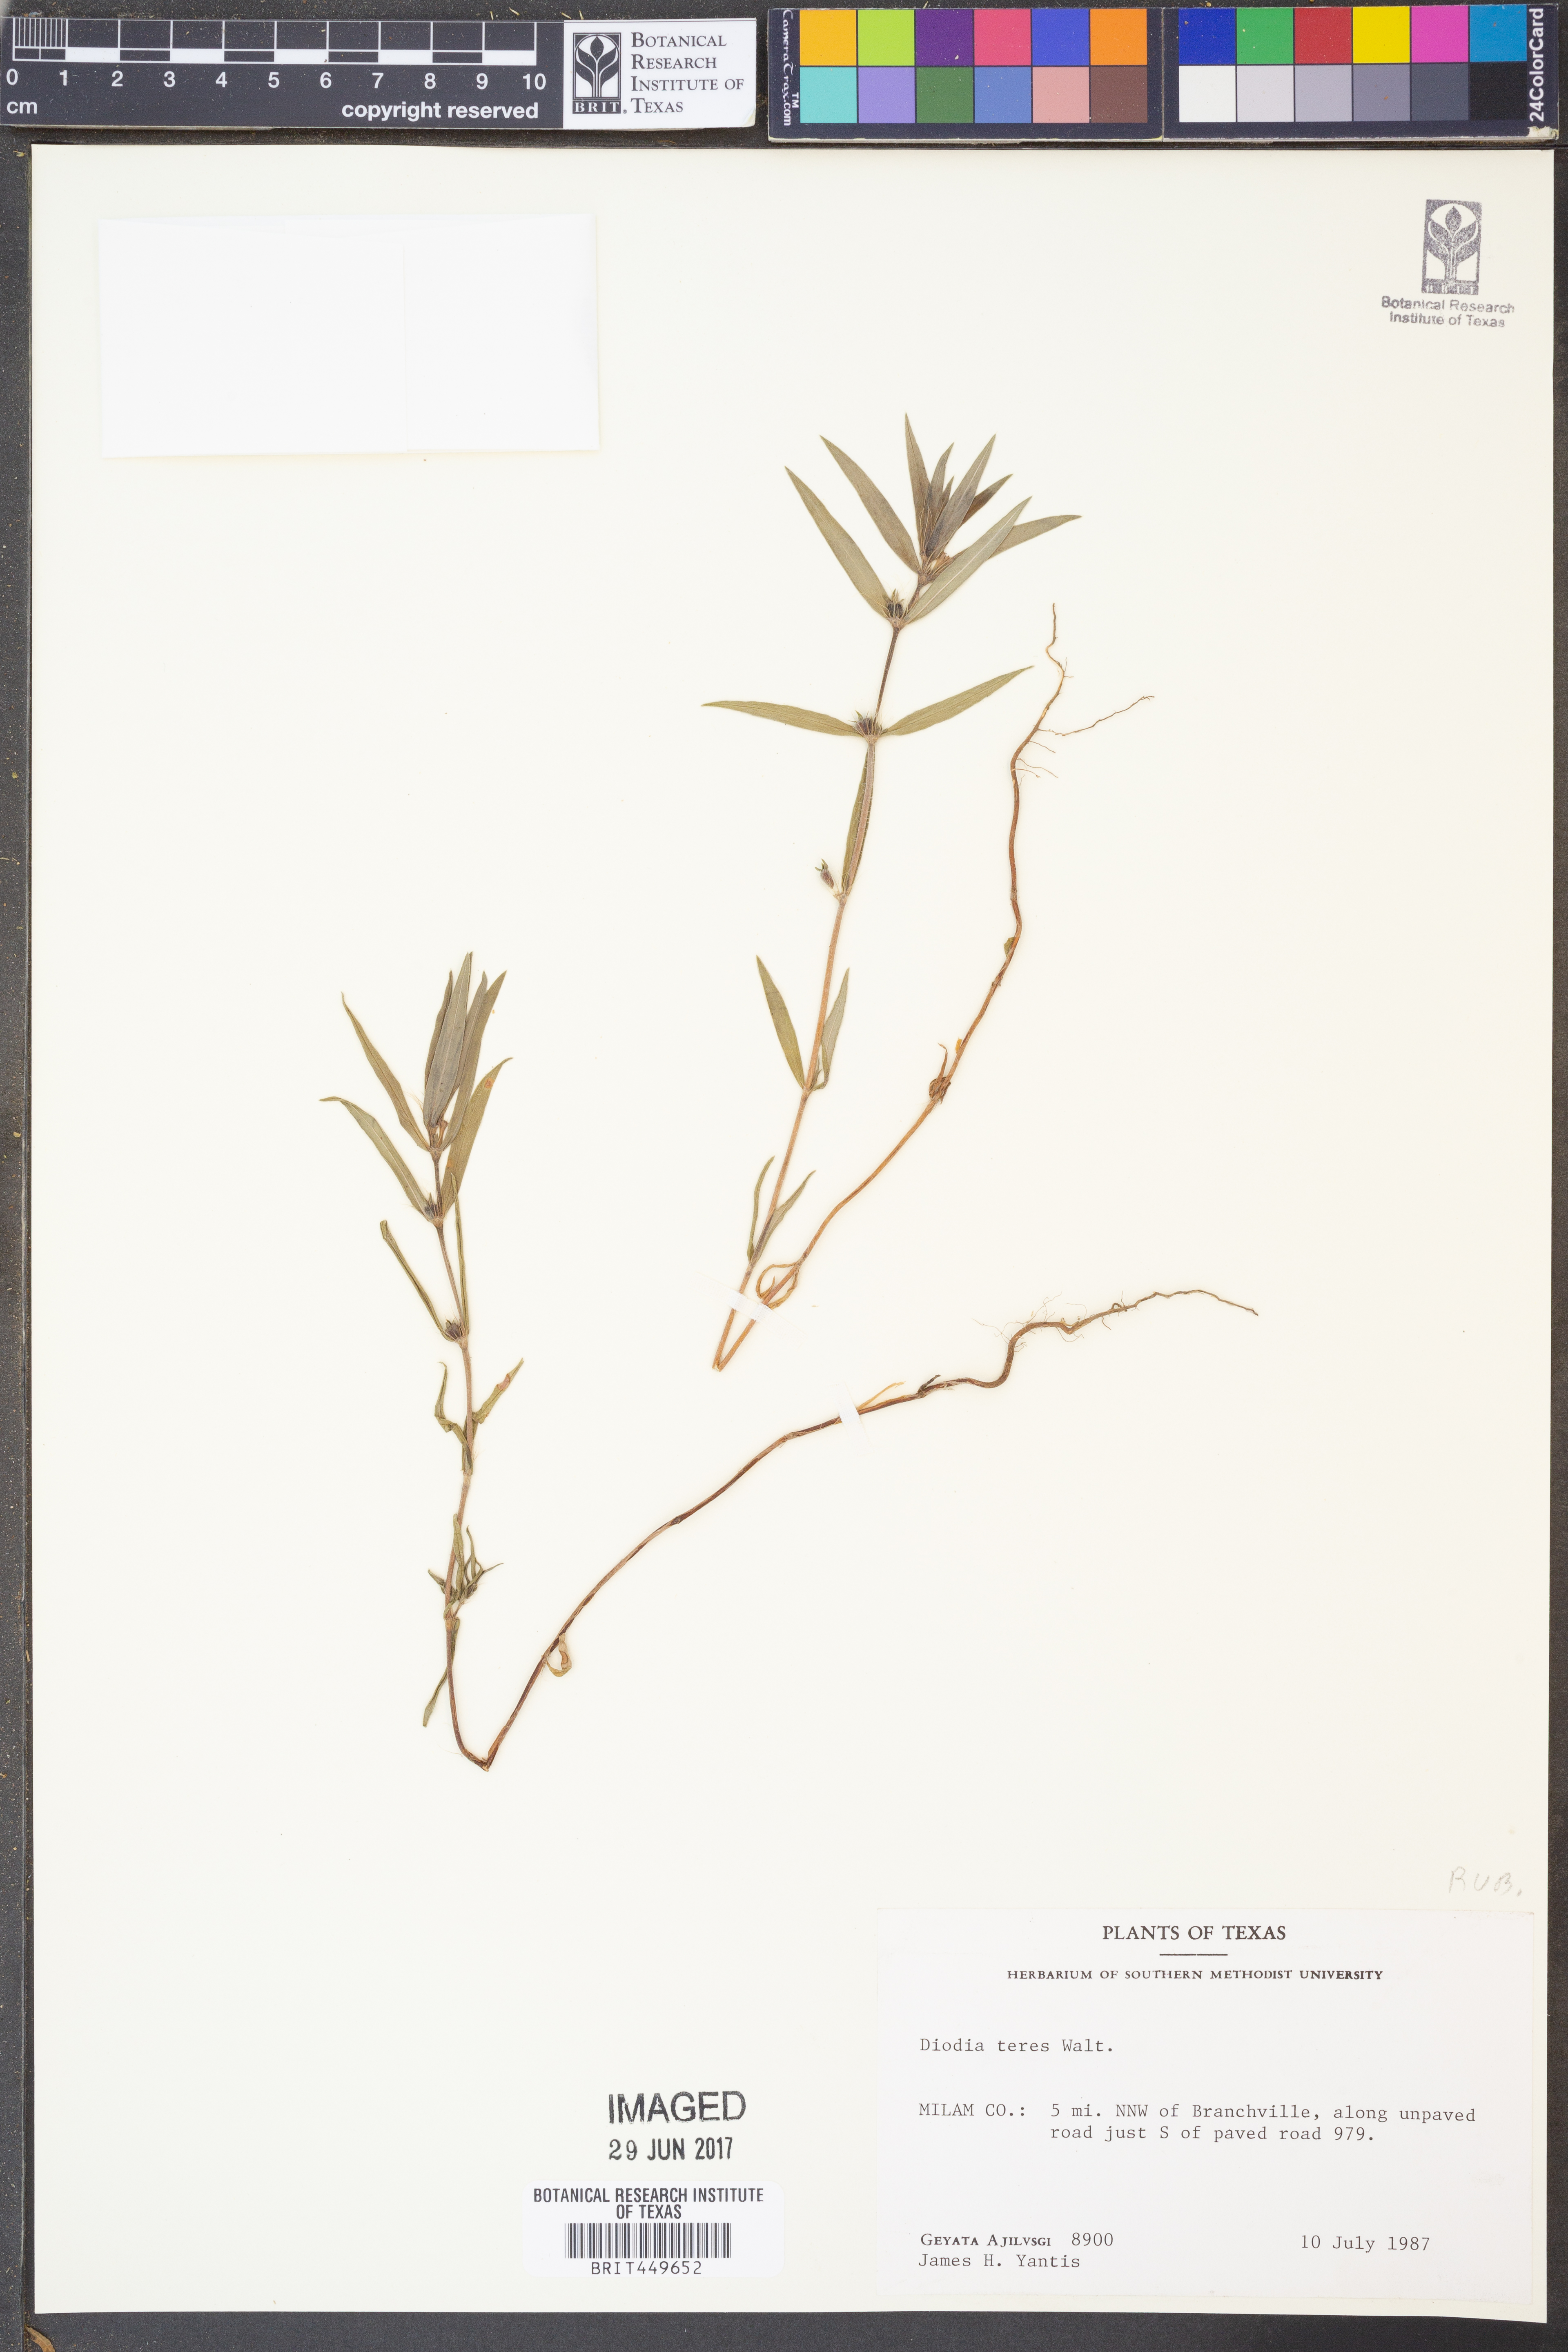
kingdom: Plantae
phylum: Tracheophyta
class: Magnoliopsida
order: Gentianales
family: Rubiaceae
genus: Hexasepalum
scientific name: Hexasepalum teres
